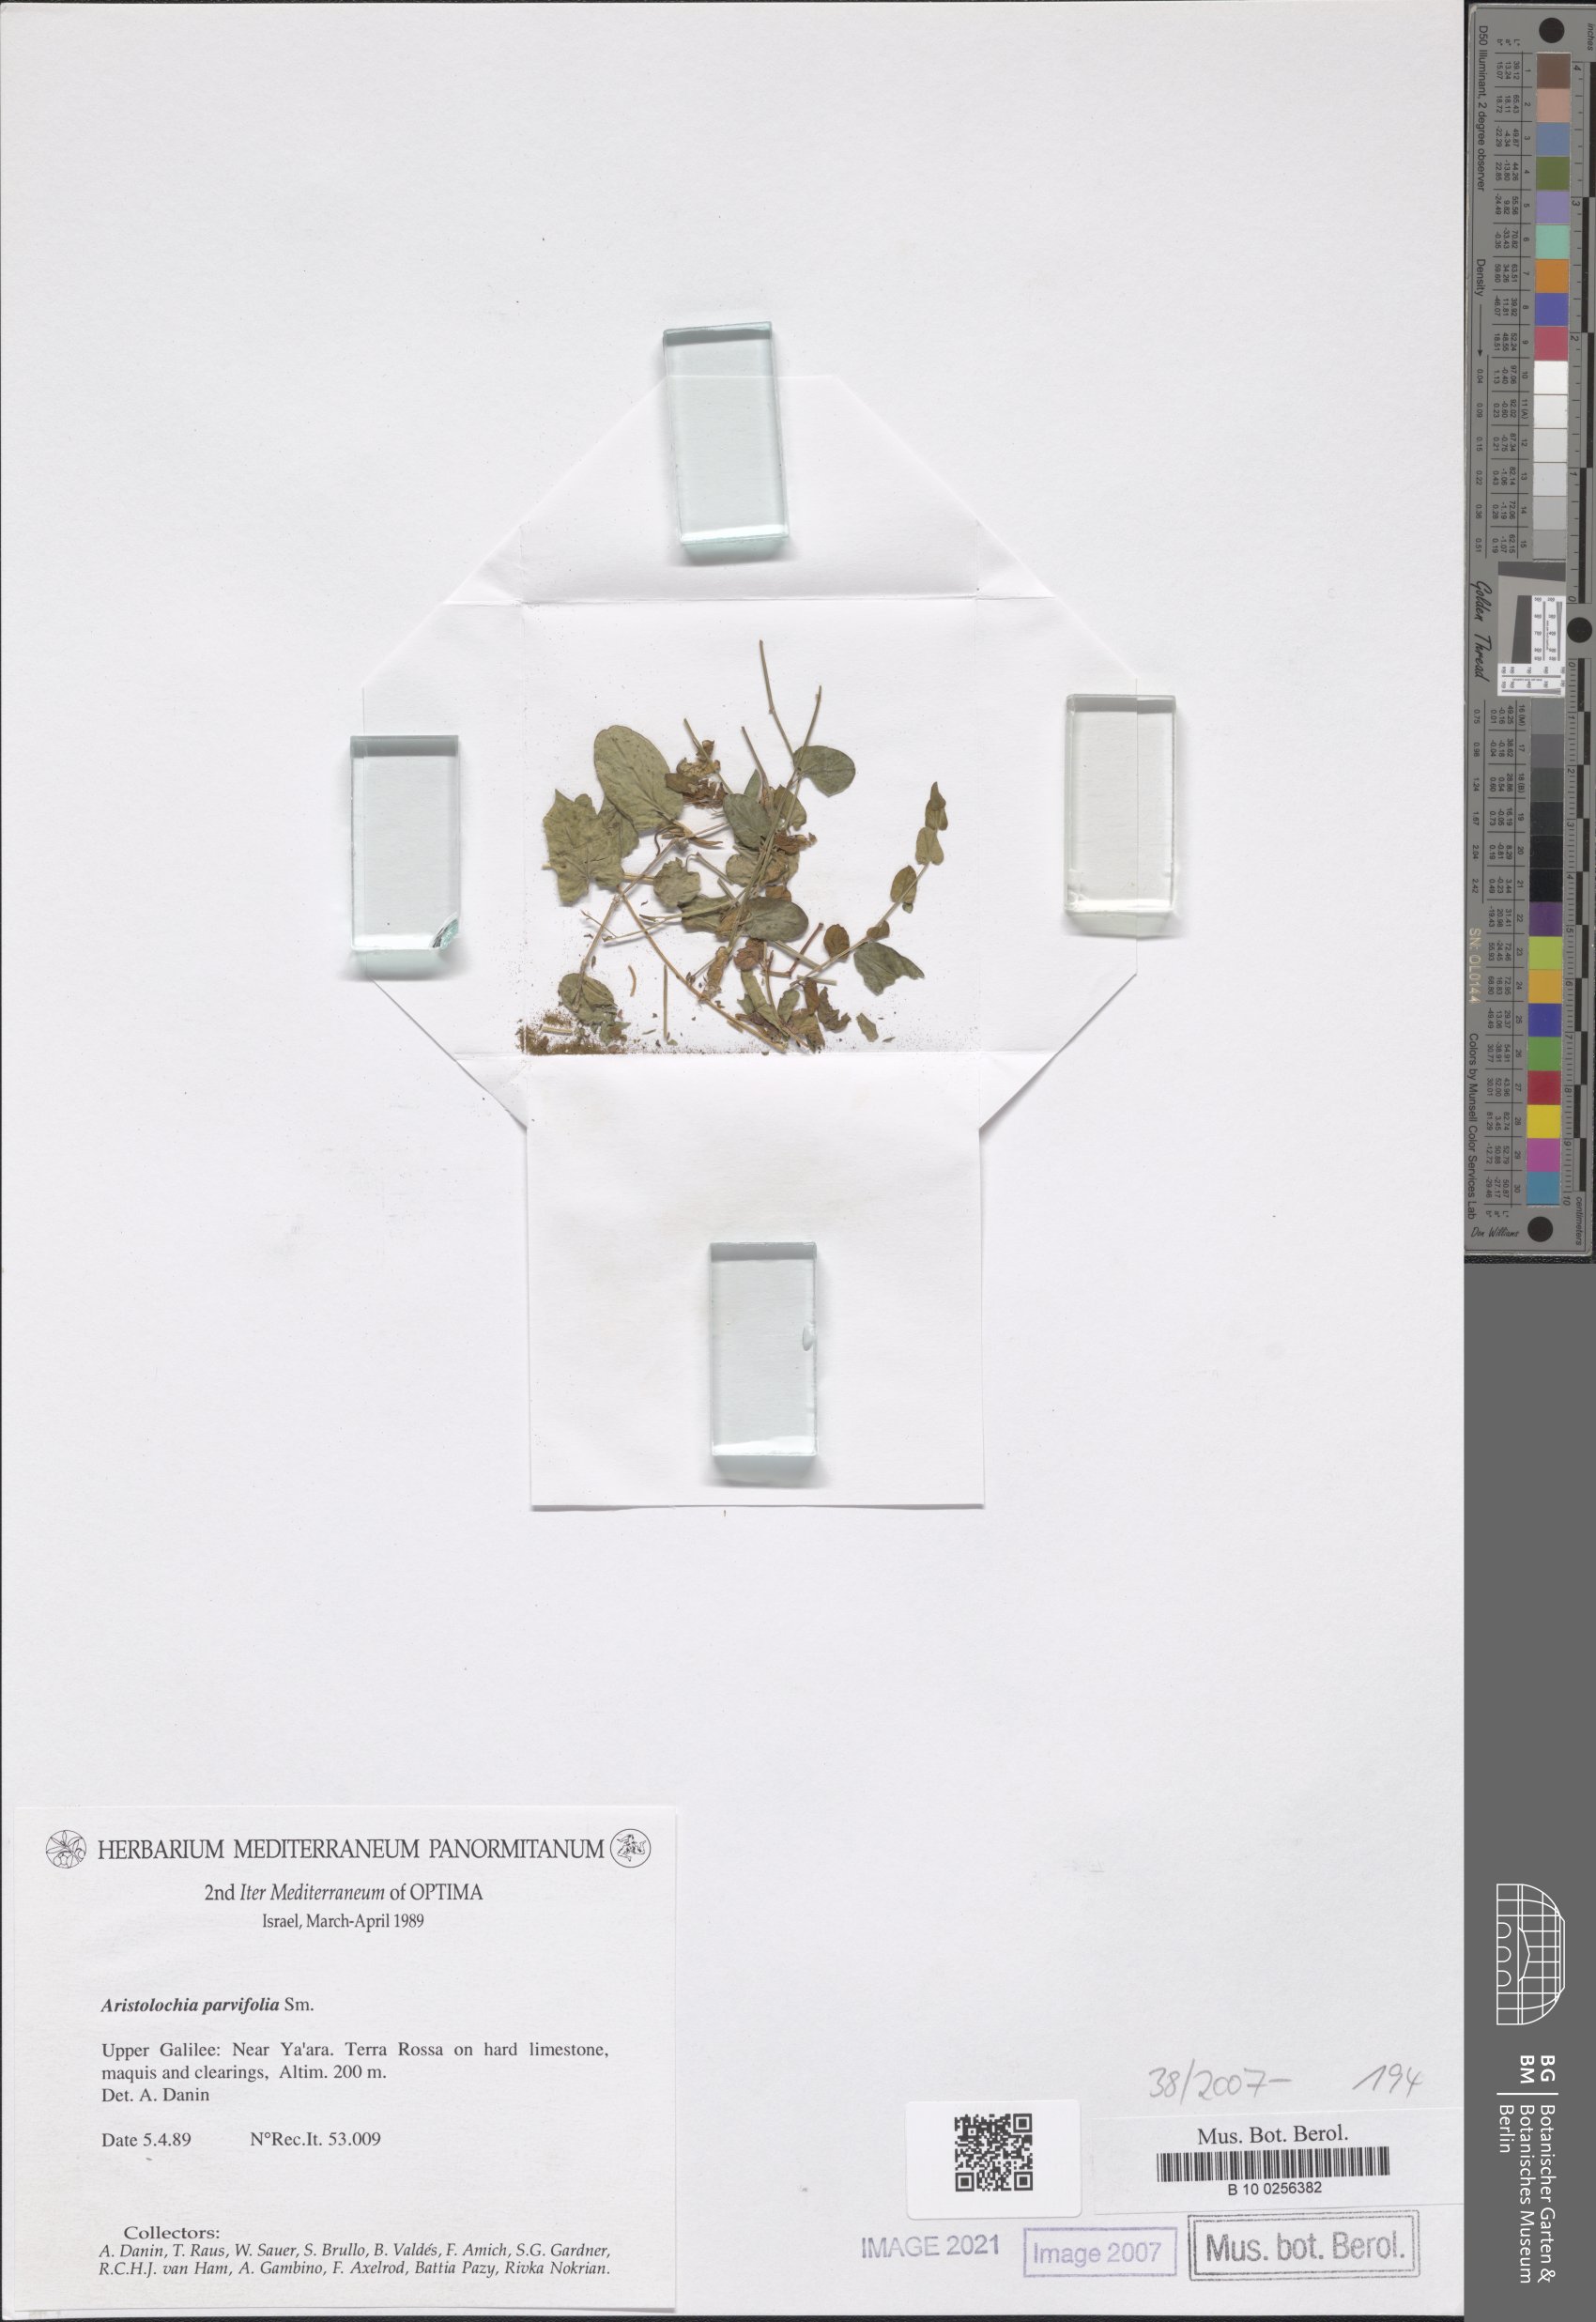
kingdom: Plantae
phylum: Tracheophyta
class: Magnoliopsida
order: Piperales
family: Aristolochiaceae
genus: Aristolochia
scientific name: Aristolochia parvifolia
